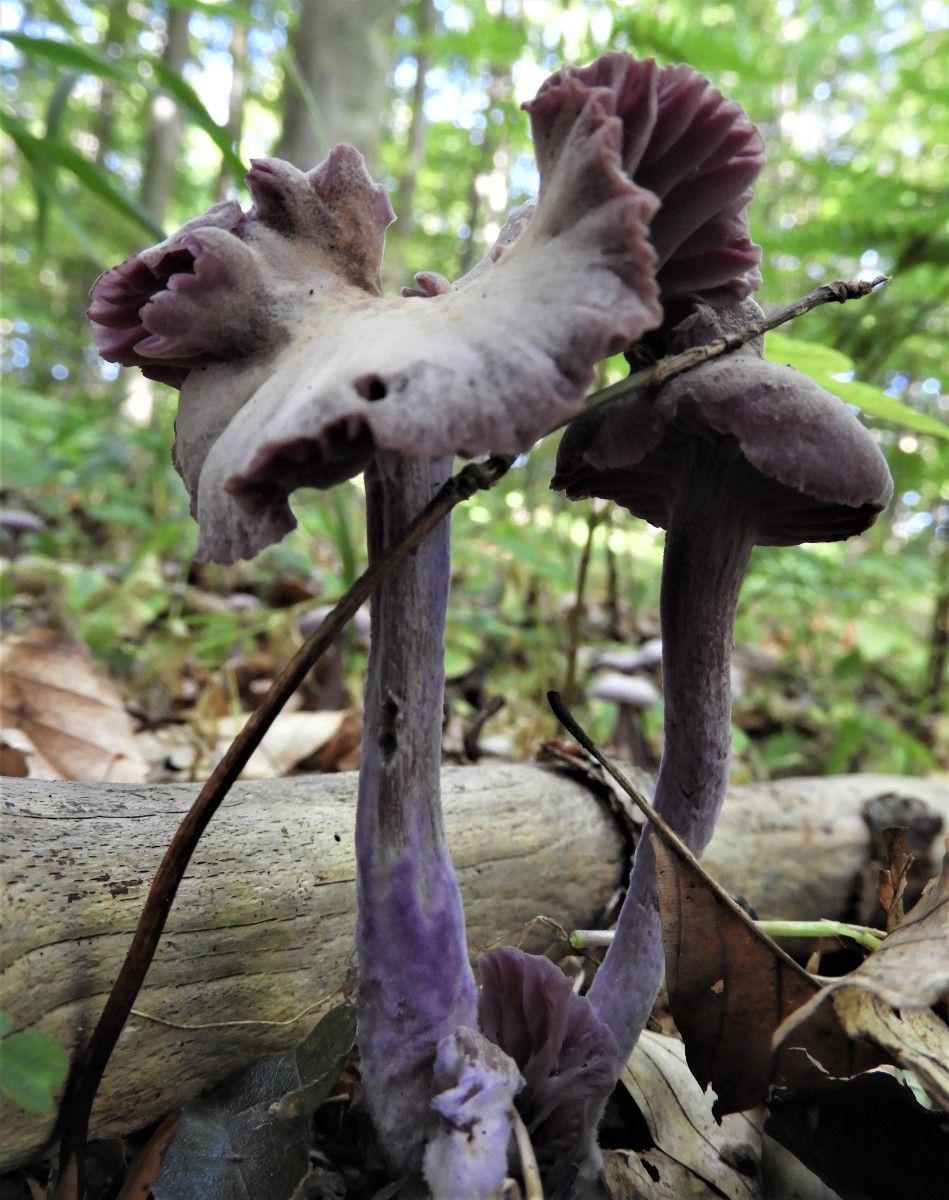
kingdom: Fungi
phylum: Basidiomycota
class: Agaricomycetes
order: Agaricales
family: Hydnangiaceae
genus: Laccaria
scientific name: Laccaria amethystina
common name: violet ametysthat
